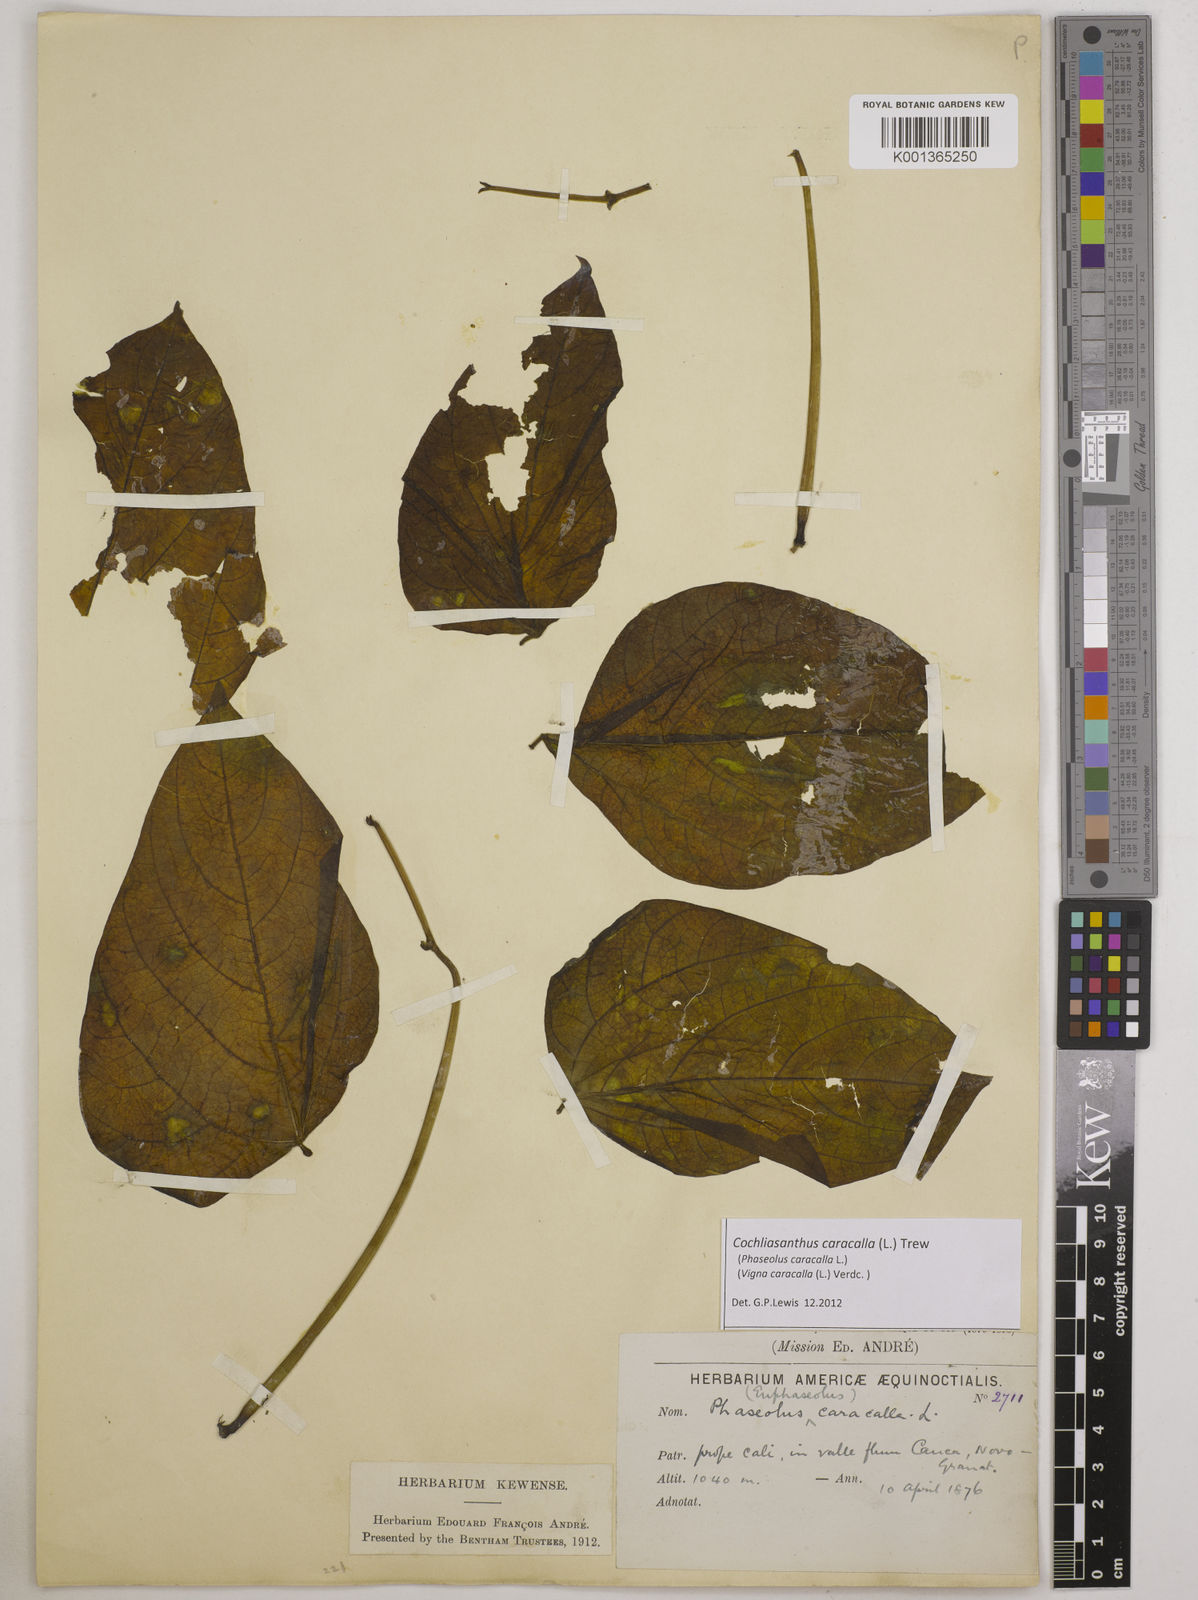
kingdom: Plantae
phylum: Tracheophyta
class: Magnoliopsida
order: Fabales
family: Fabaceae
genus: Cochliasanthus
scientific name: Cochliasanthus caracalla
